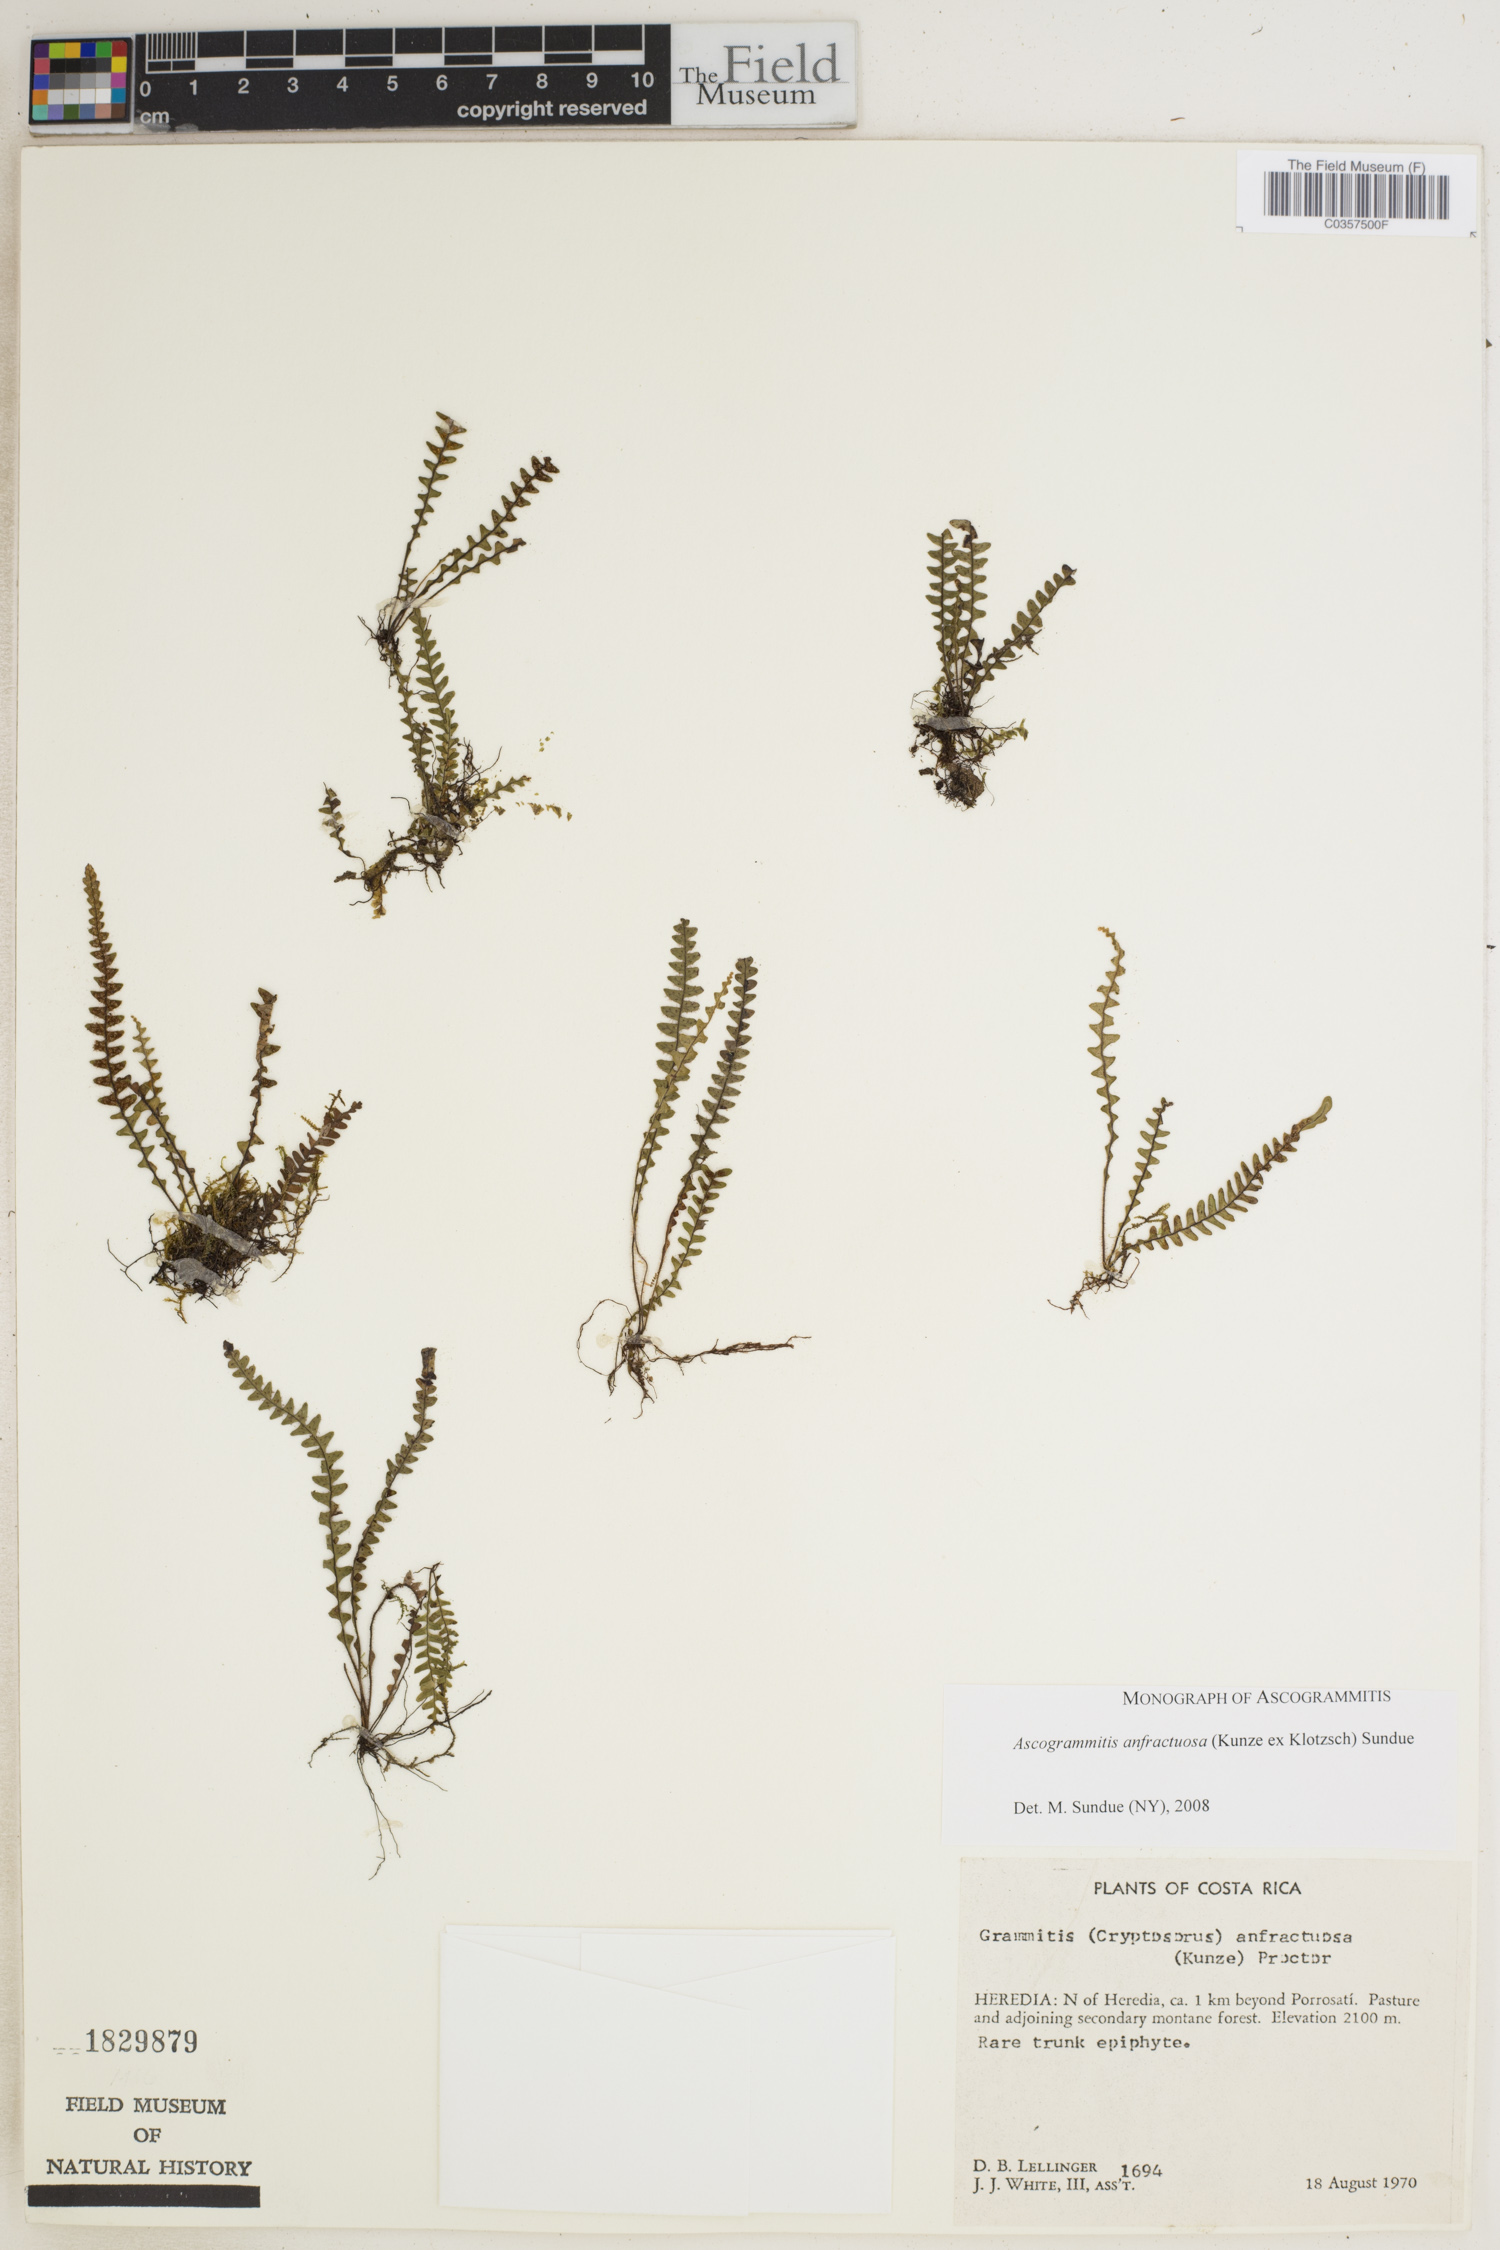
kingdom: Plantae
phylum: Tracheophyta
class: Polypodiopsida
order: Polypodiales
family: Polypodiaceae
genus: Ascogrammitis
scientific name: Ascogrammitis anfractuosa
